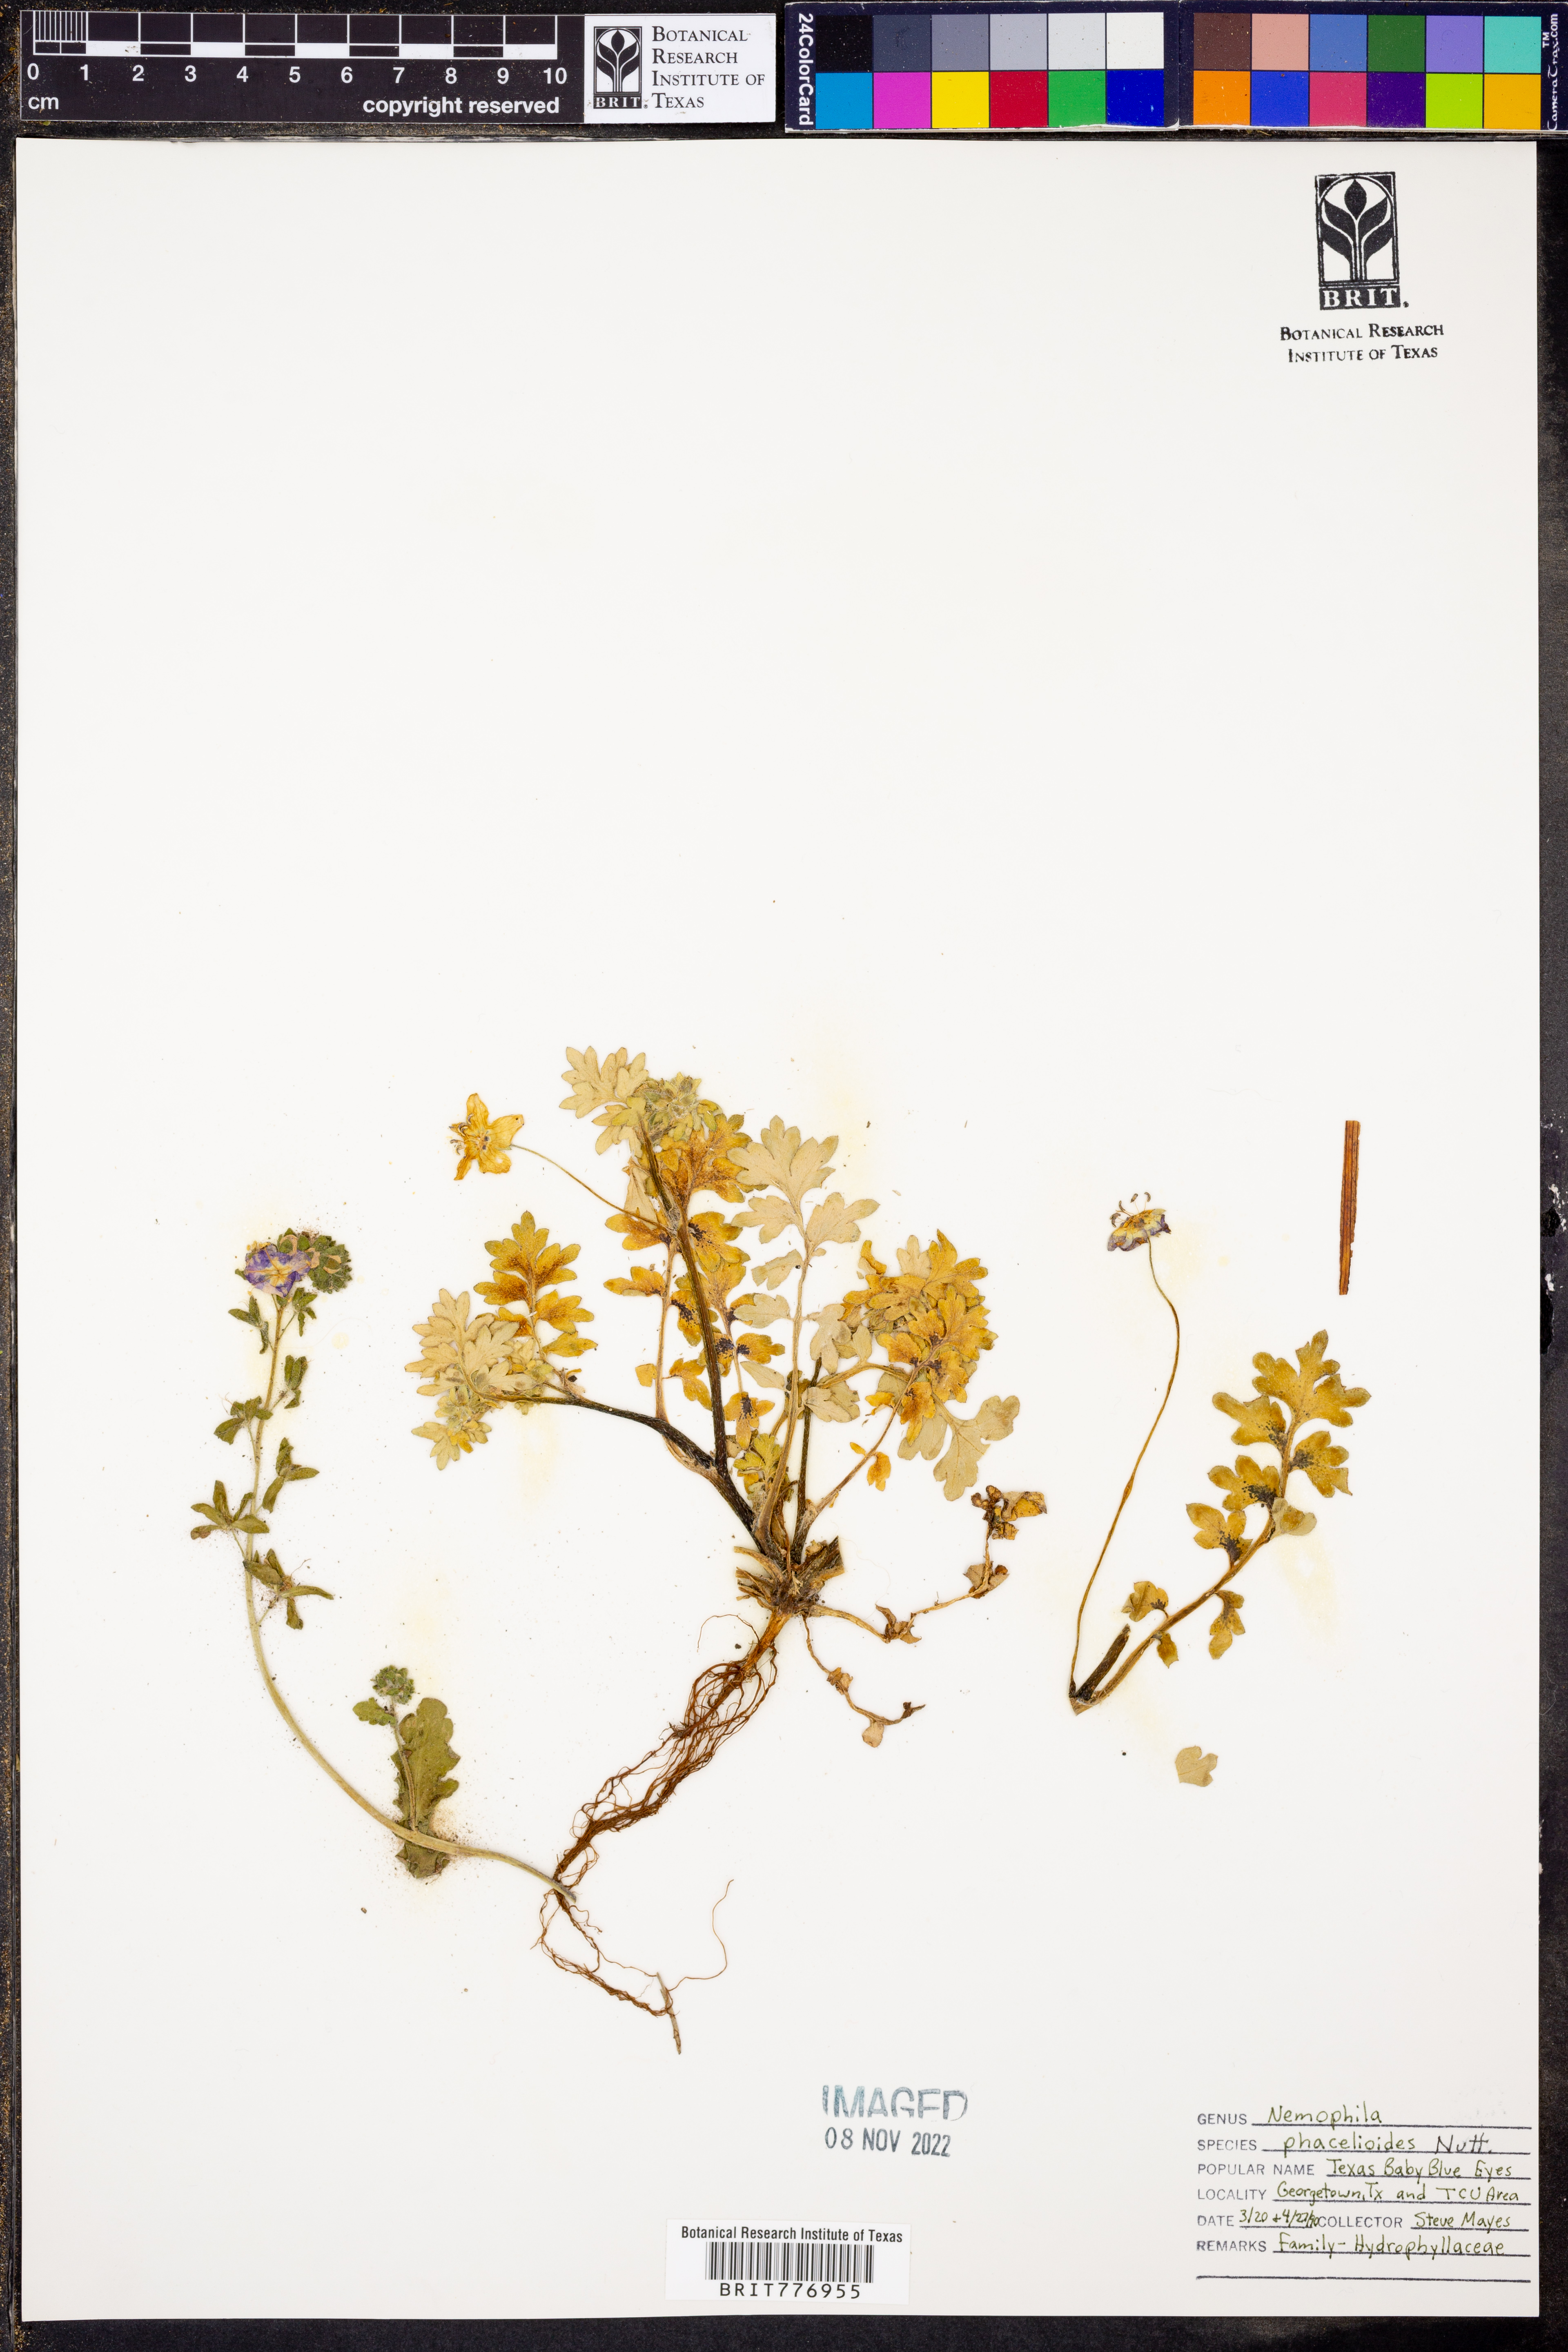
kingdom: Plantae
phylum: Tracheophyta
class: Magnoliopsida
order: Boraginales
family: Hydrophyllaceae
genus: Nemophila
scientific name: Nemophila phacelioides
